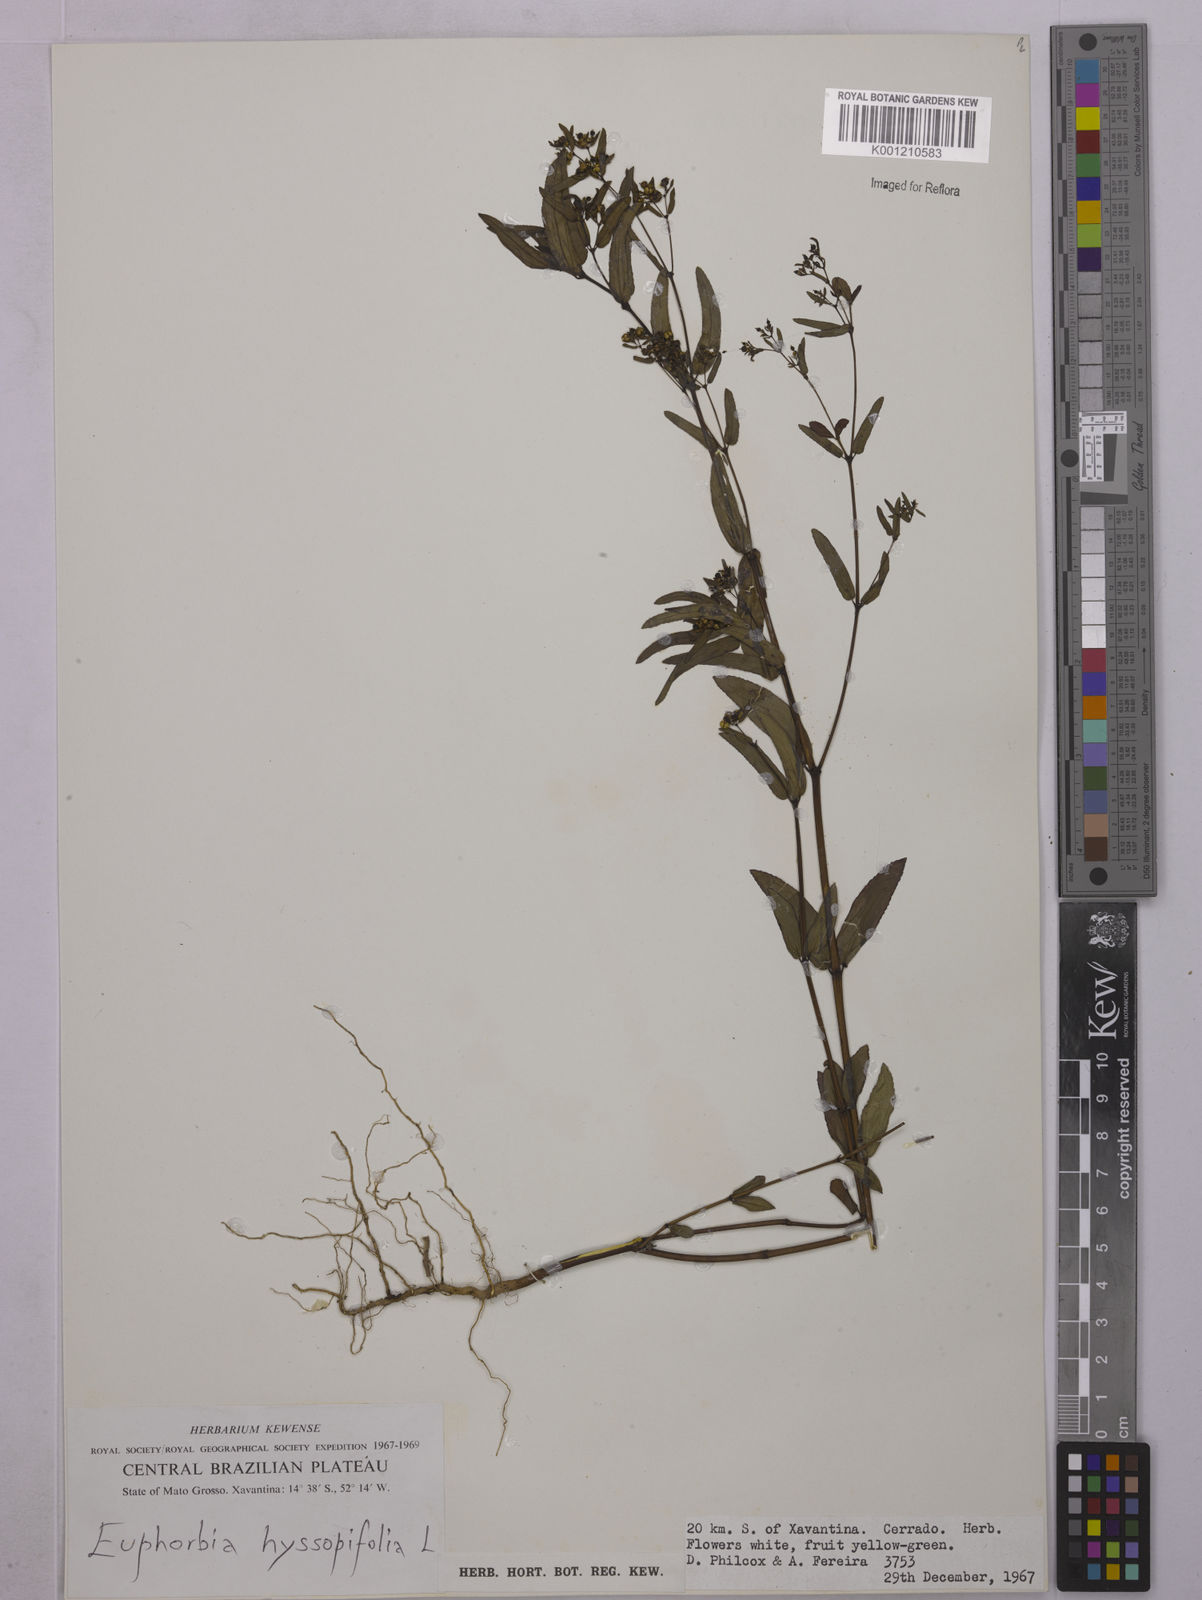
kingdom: Plantae
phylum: Tracheophyta
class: Magnoliopsida
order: Malpighiales
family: Euphorbiaceae
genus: Euphorbia
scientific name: Euphorbia hyssopifolia
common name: Hyssopleaf sandmat
